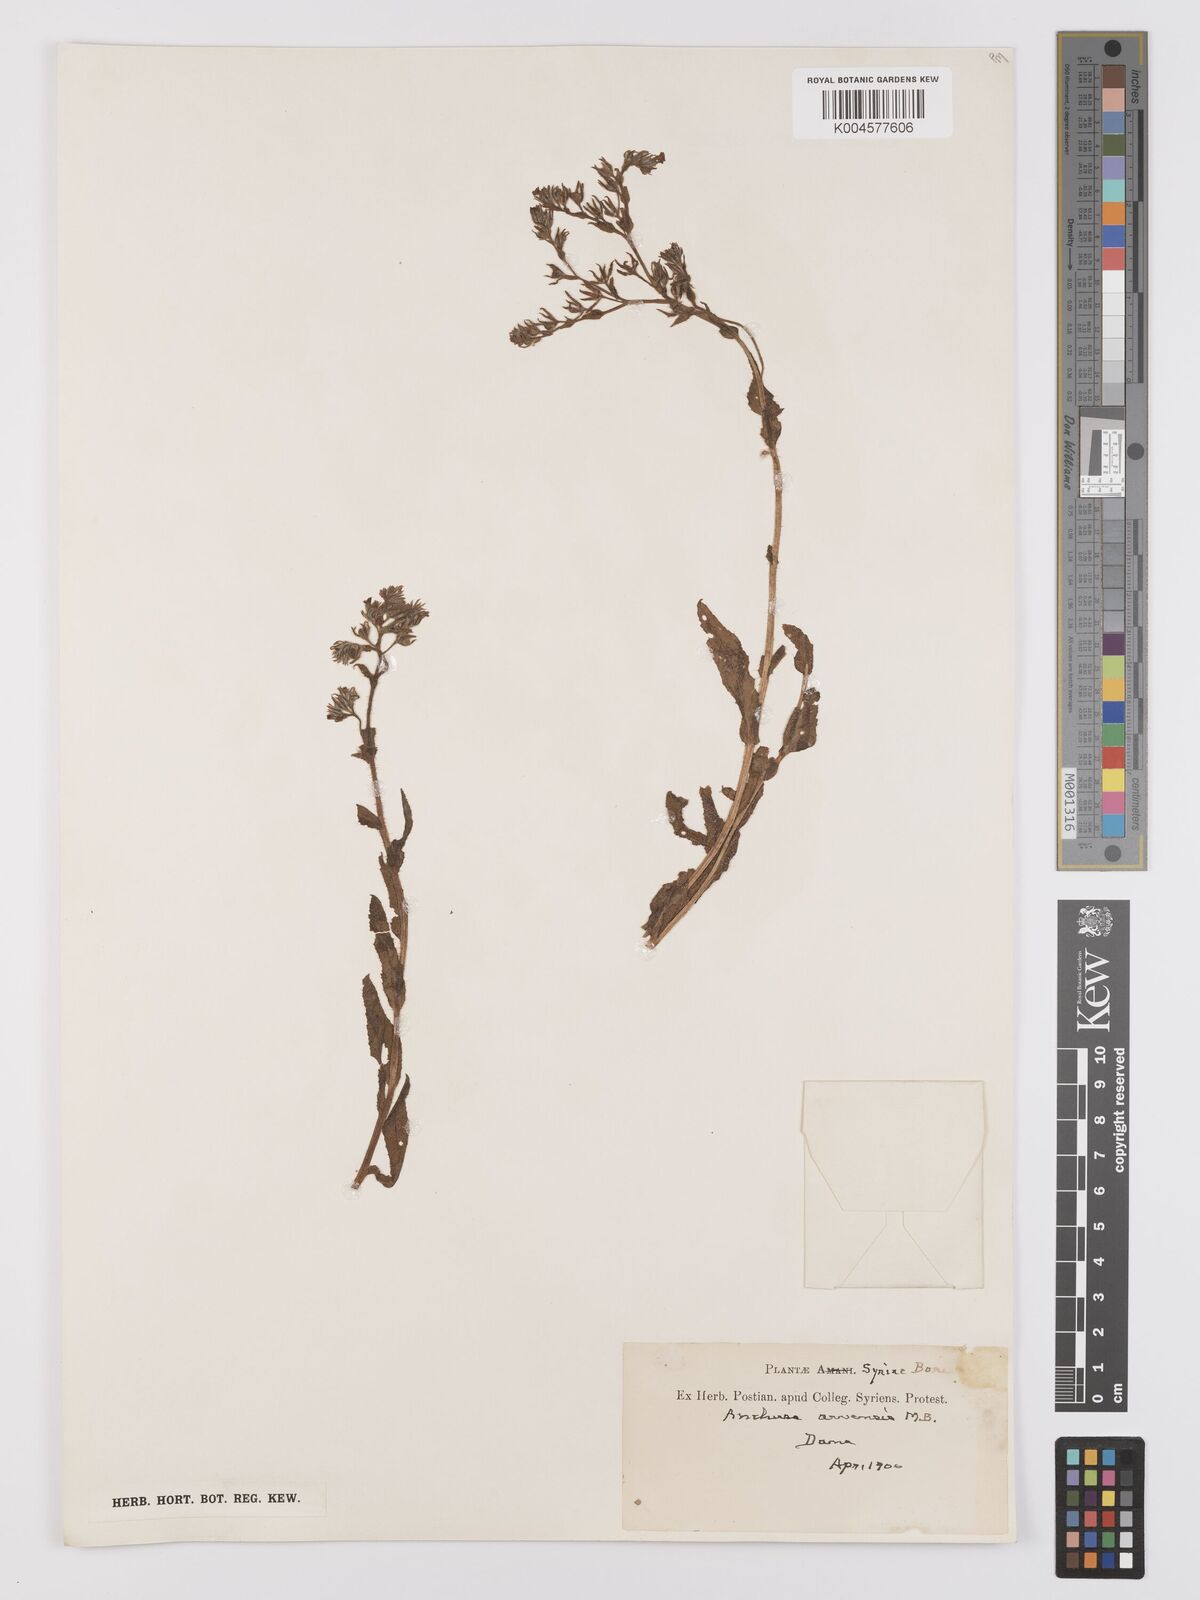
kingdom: Plantae
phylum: Tracheophyta
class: Magnoliopsida
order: Boraginales
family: Boraginaceae
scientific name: Boraginaceae
